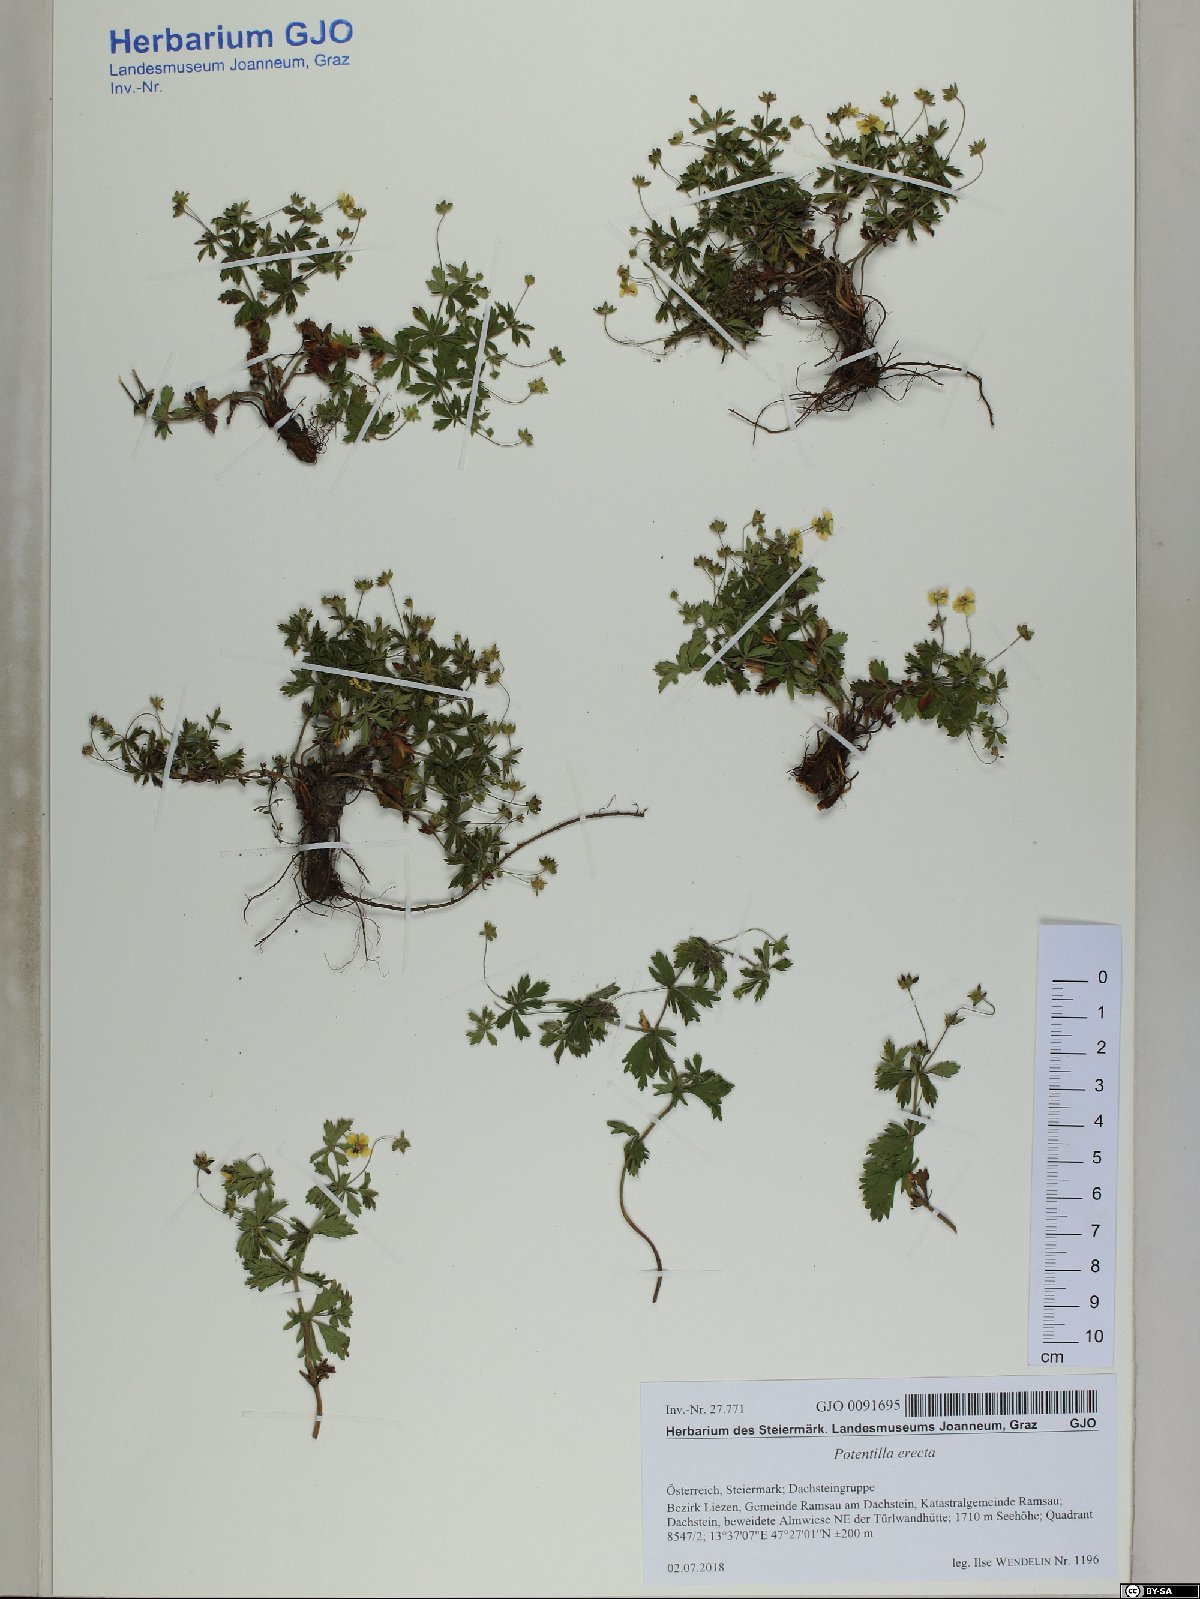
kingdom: Plantae
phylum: Tracheophyta
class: Magnoliopsida
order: Rosales
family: Rosaceae
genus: Potentilla
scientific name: Potentilla erecta
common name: Tormentil
